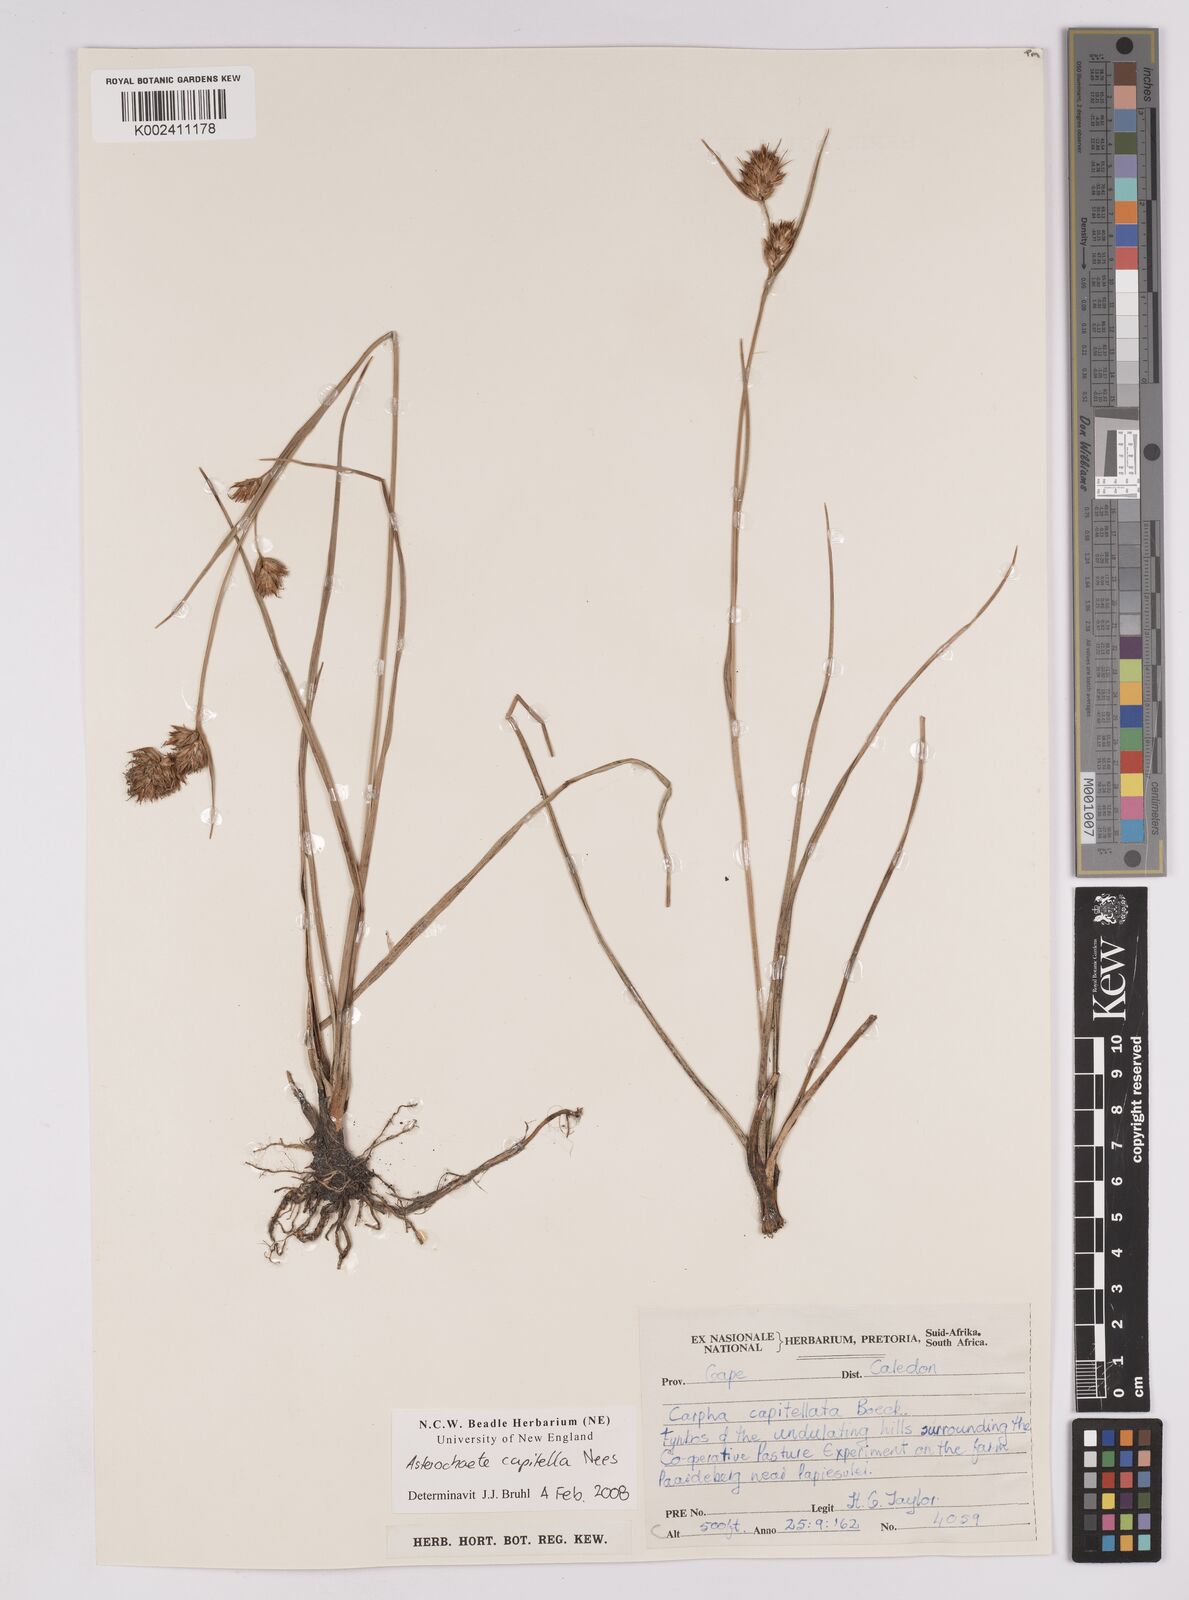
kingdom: Plantae
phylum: Tracheophyta
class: Liliopsida
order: Poales
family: Cyperaceae
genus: Carpha
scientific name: Carpha capitellata
